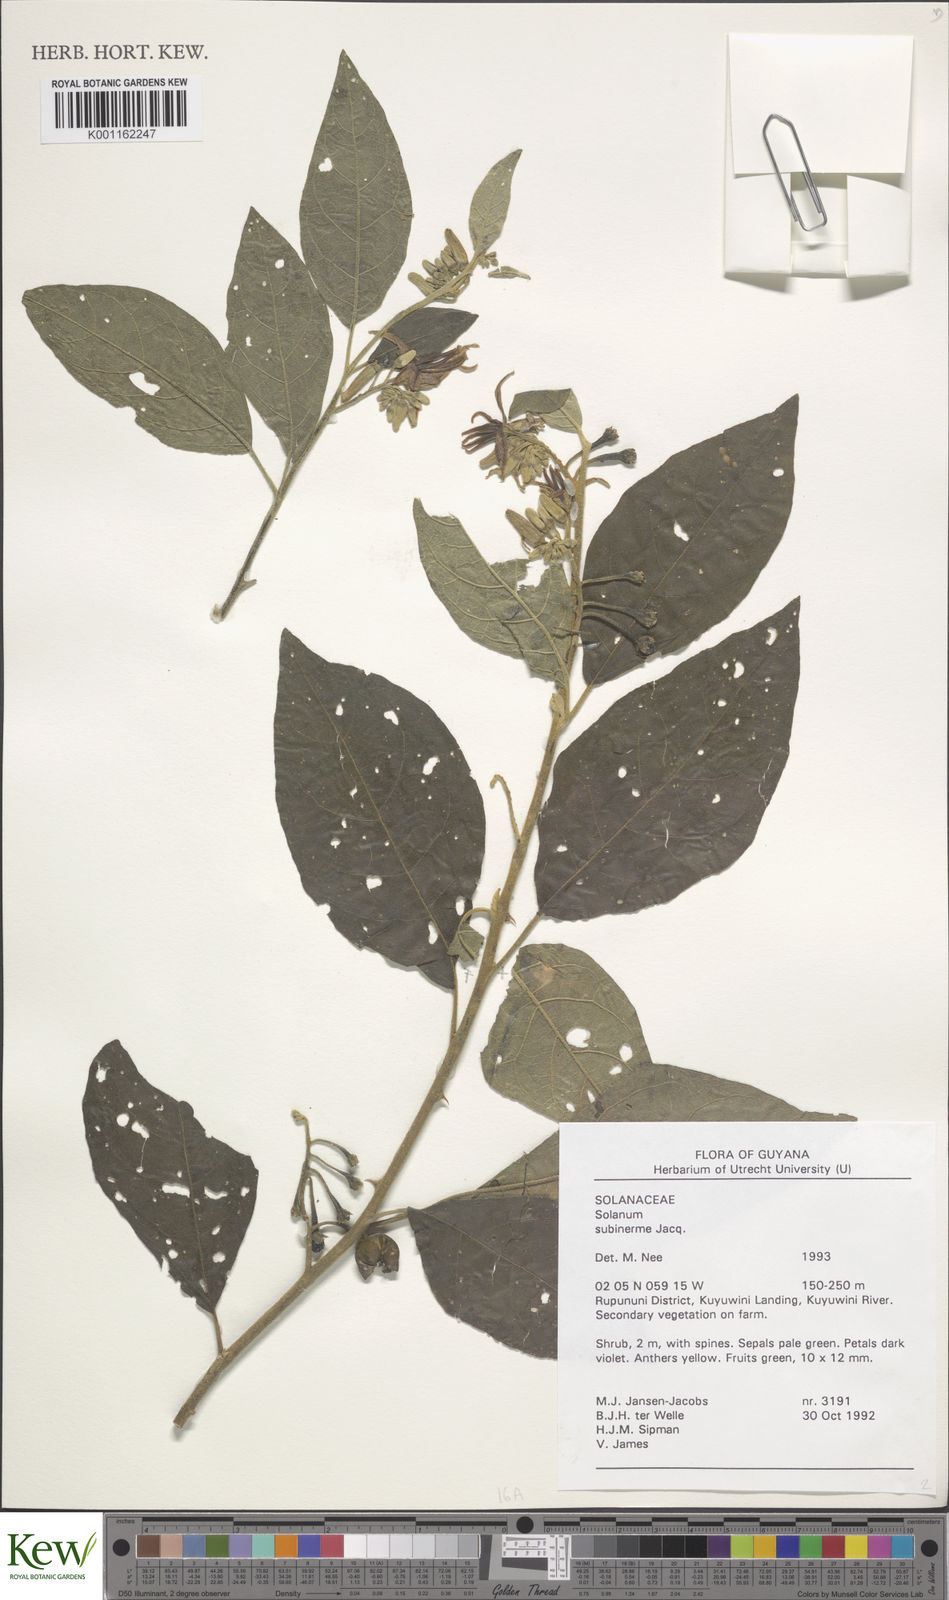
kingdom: Plantae
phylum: Tracheophyta
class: Magnoliopsida
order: Solanales
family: Solanaceae
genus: Solanum
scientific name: Solanum subinerme
